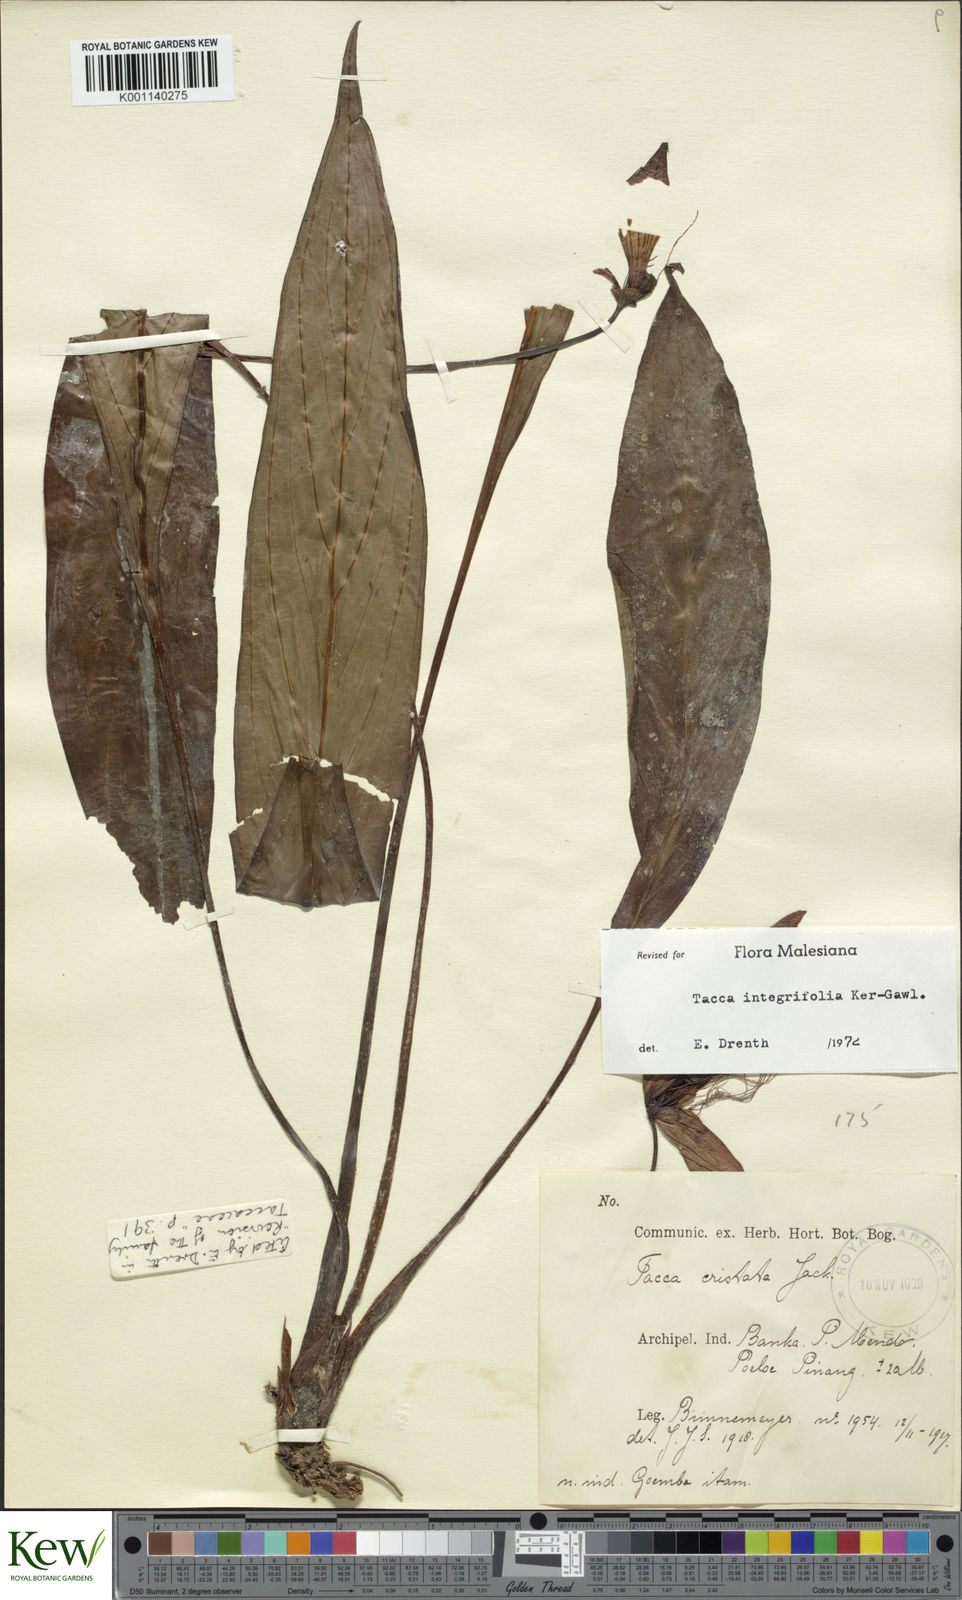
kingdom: Plantae
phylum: Tracheophyta
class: Liliopsida
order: Dioscoreales
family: Dioscoreaceae
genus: Tacca
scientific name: Tacca integrifolia
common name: Batplant
